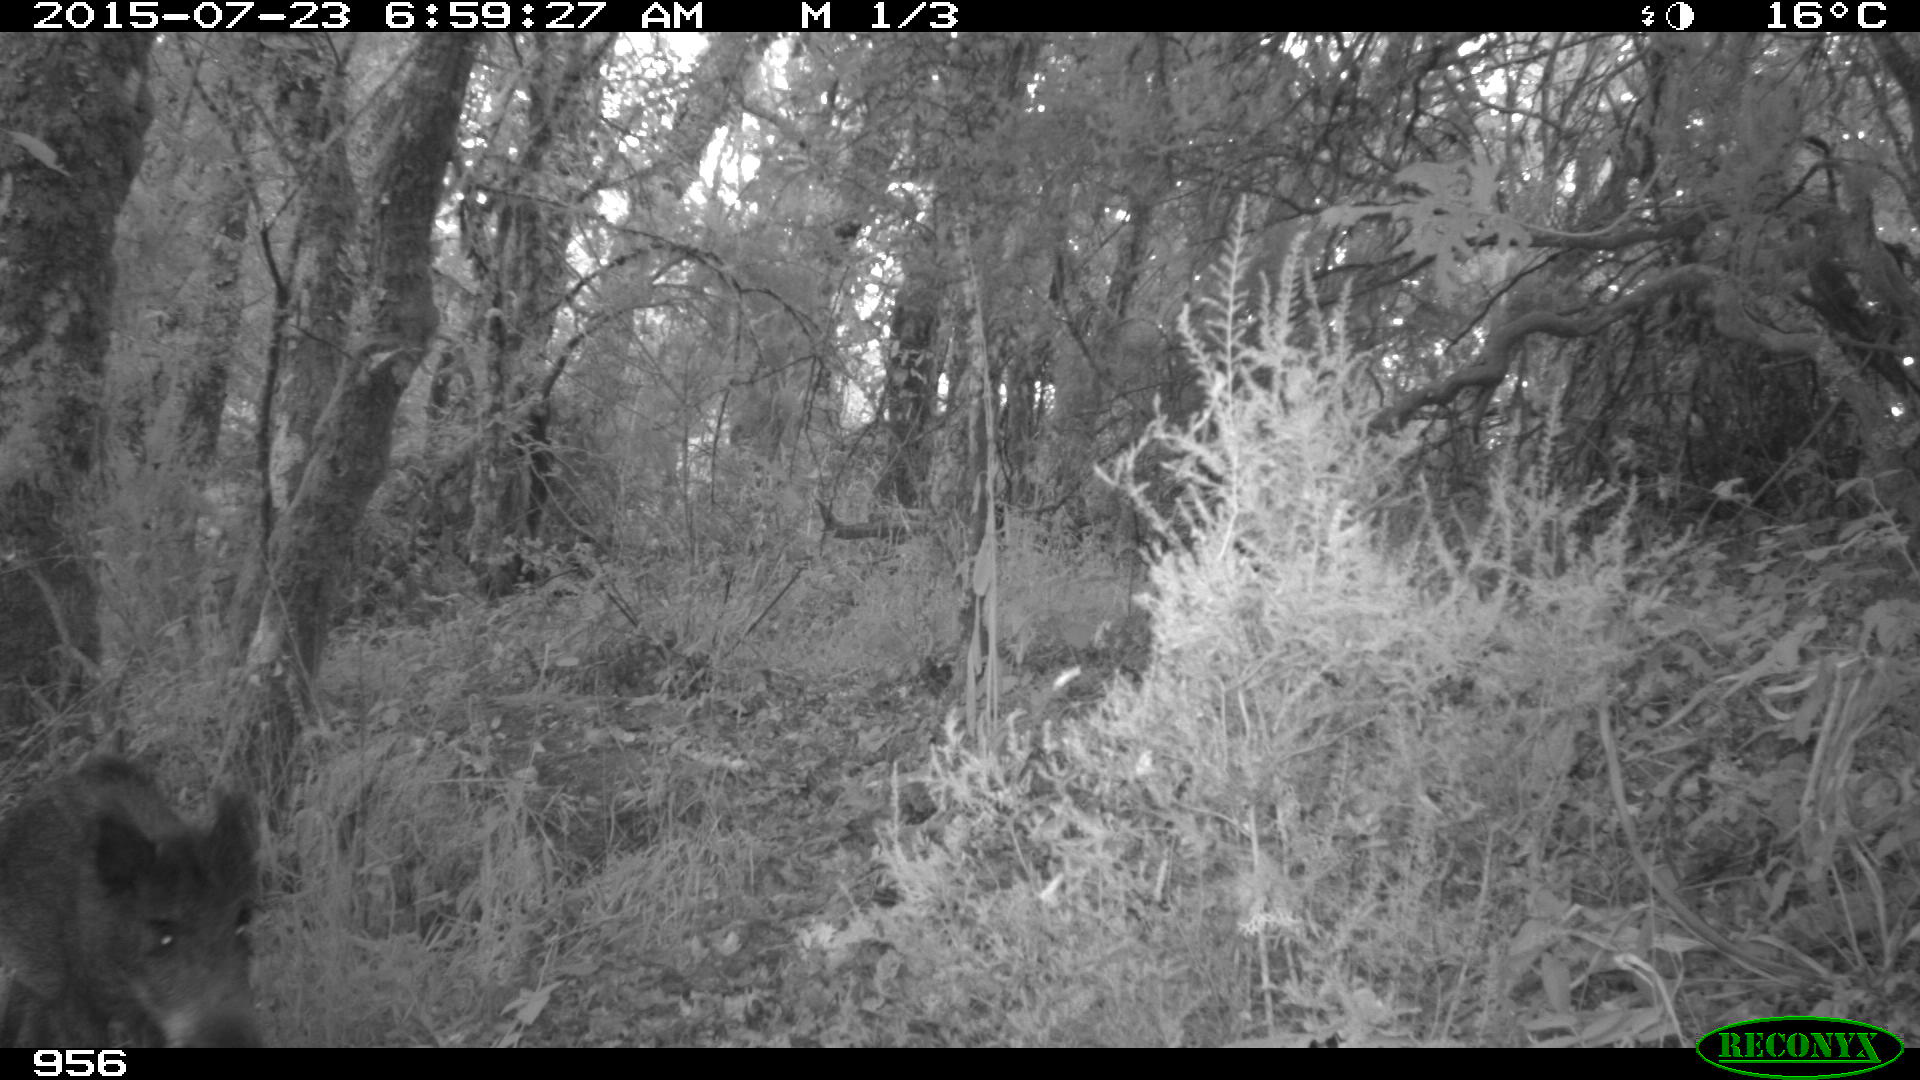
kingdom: Animalia
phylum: Chordata
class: Mammalia
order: Artiodactyla
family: Suidae
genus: Sus
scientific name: Sus scrofa
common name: Wild boar
